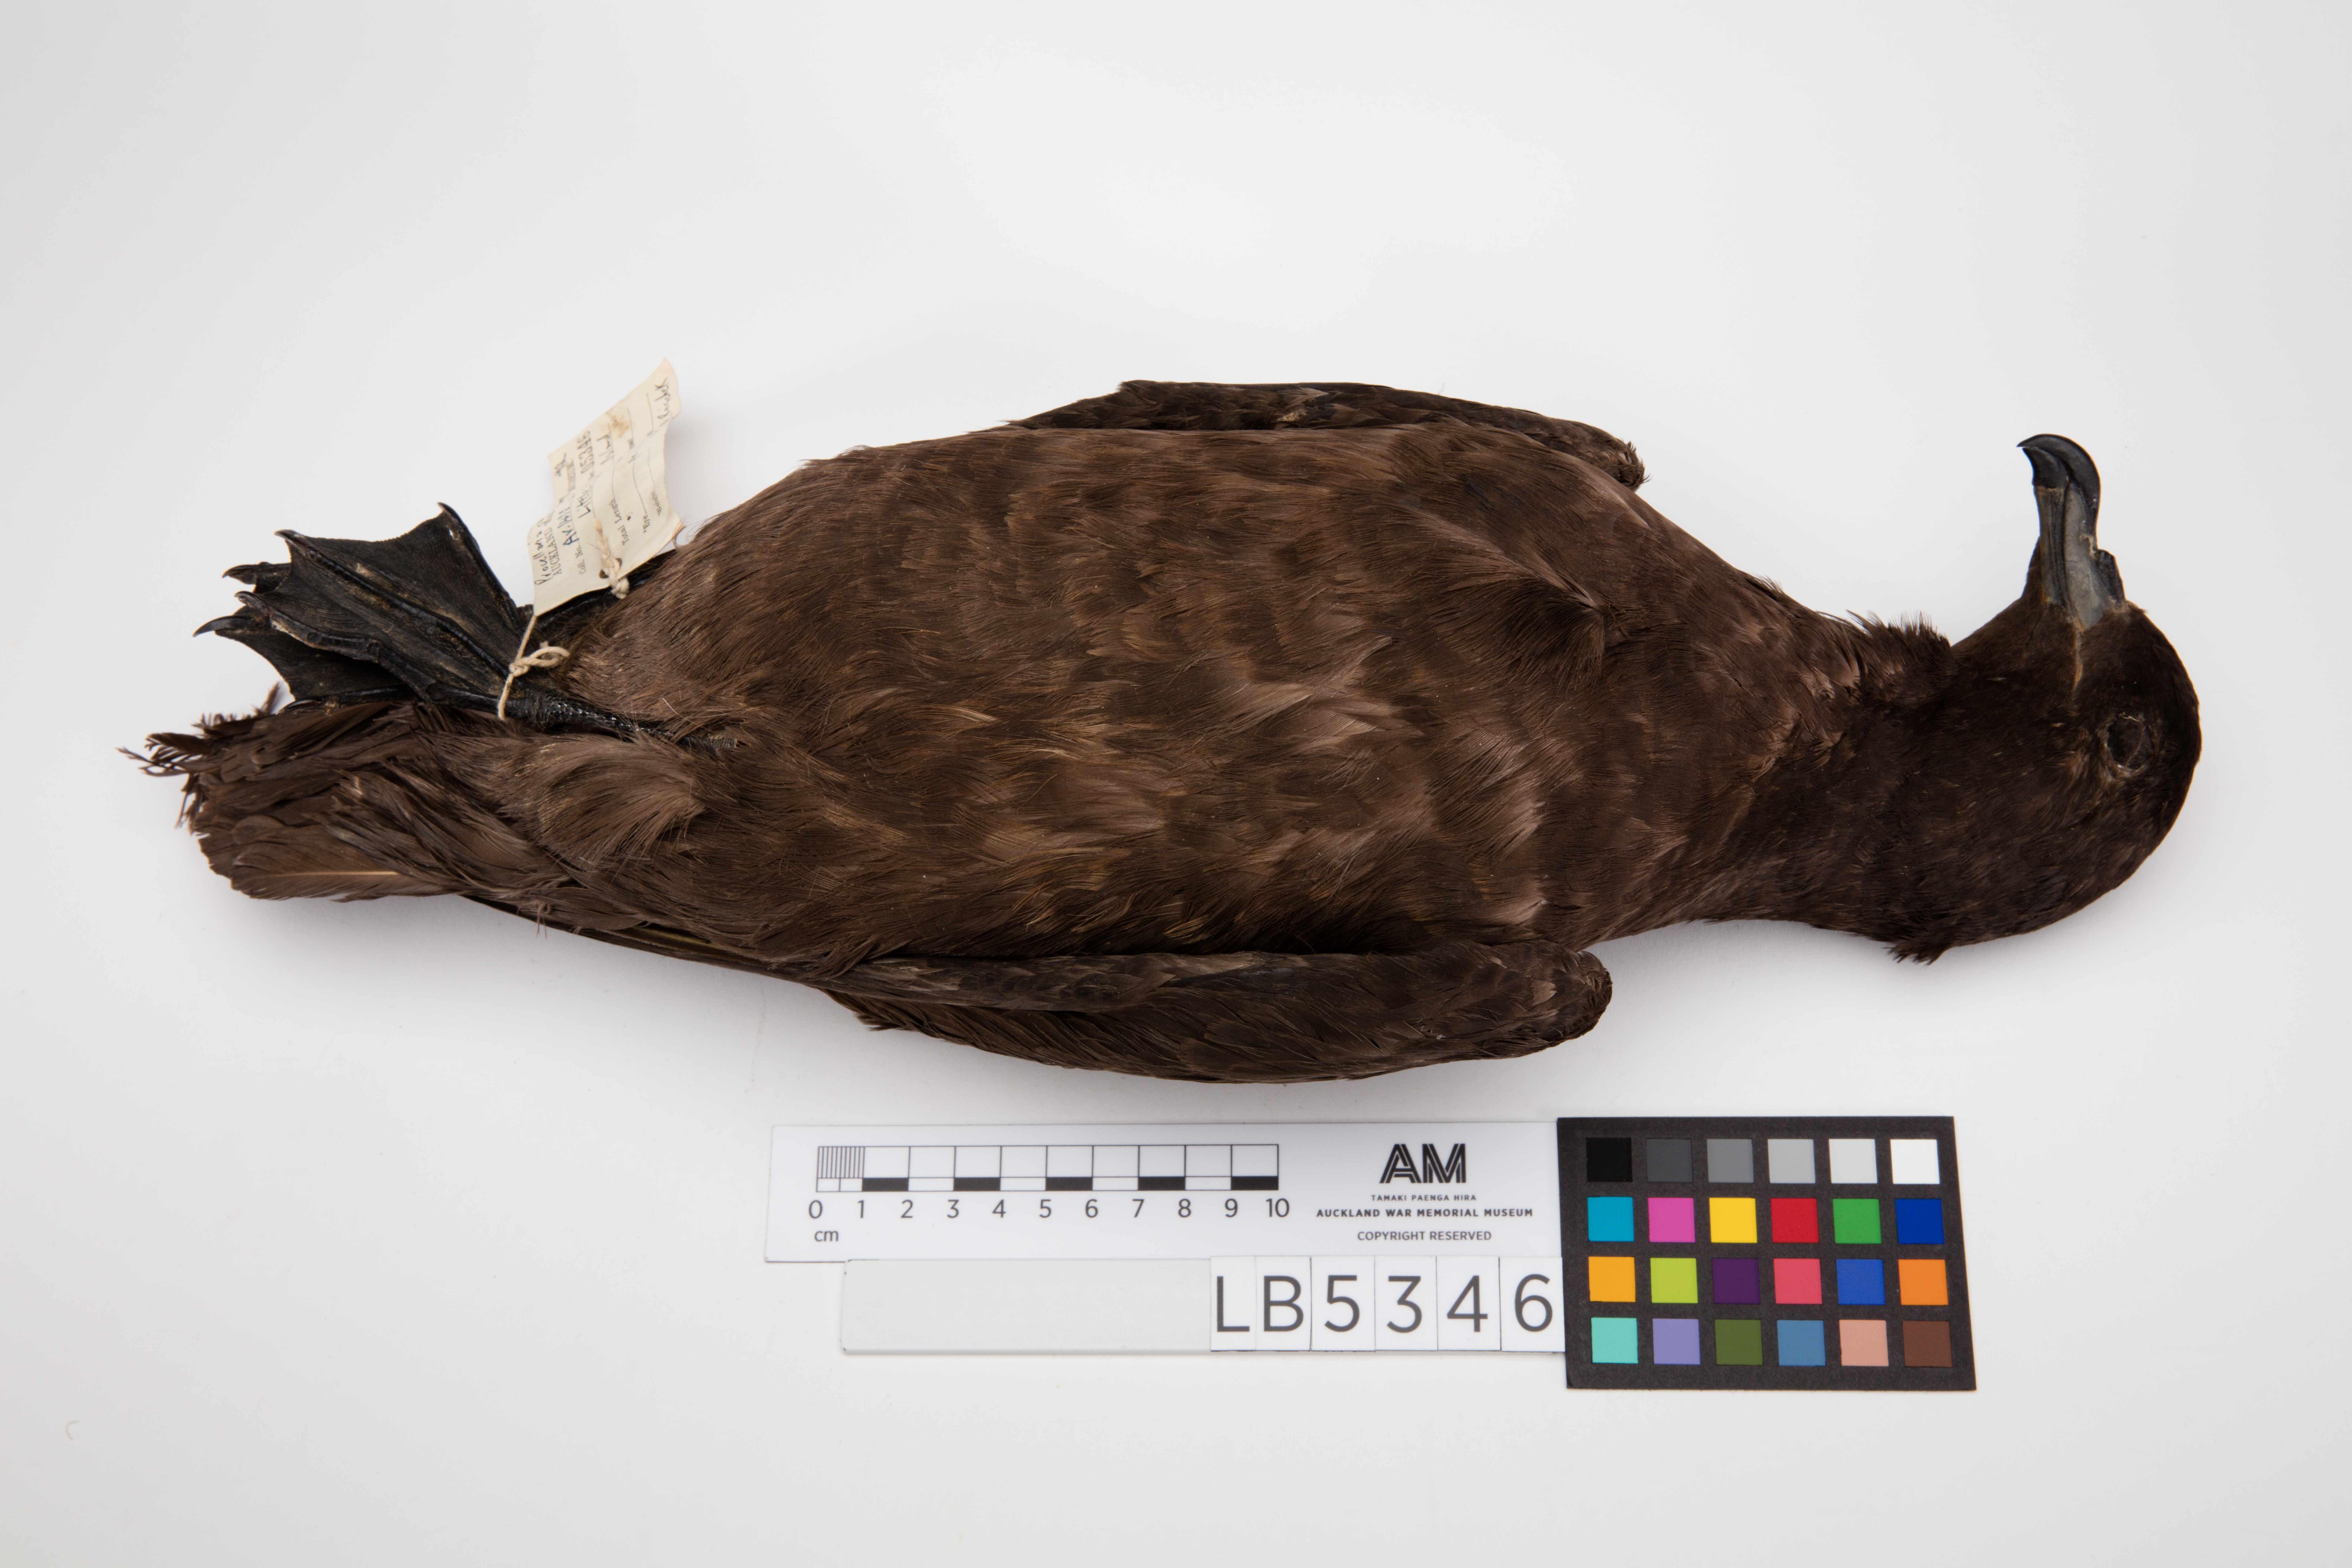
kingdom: Animalia
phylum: Chordata
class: Aves
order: Procellariiformes
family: Procellariidae
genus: Procellaria
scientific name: Procellaria parkinsoni
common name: Black petrel
